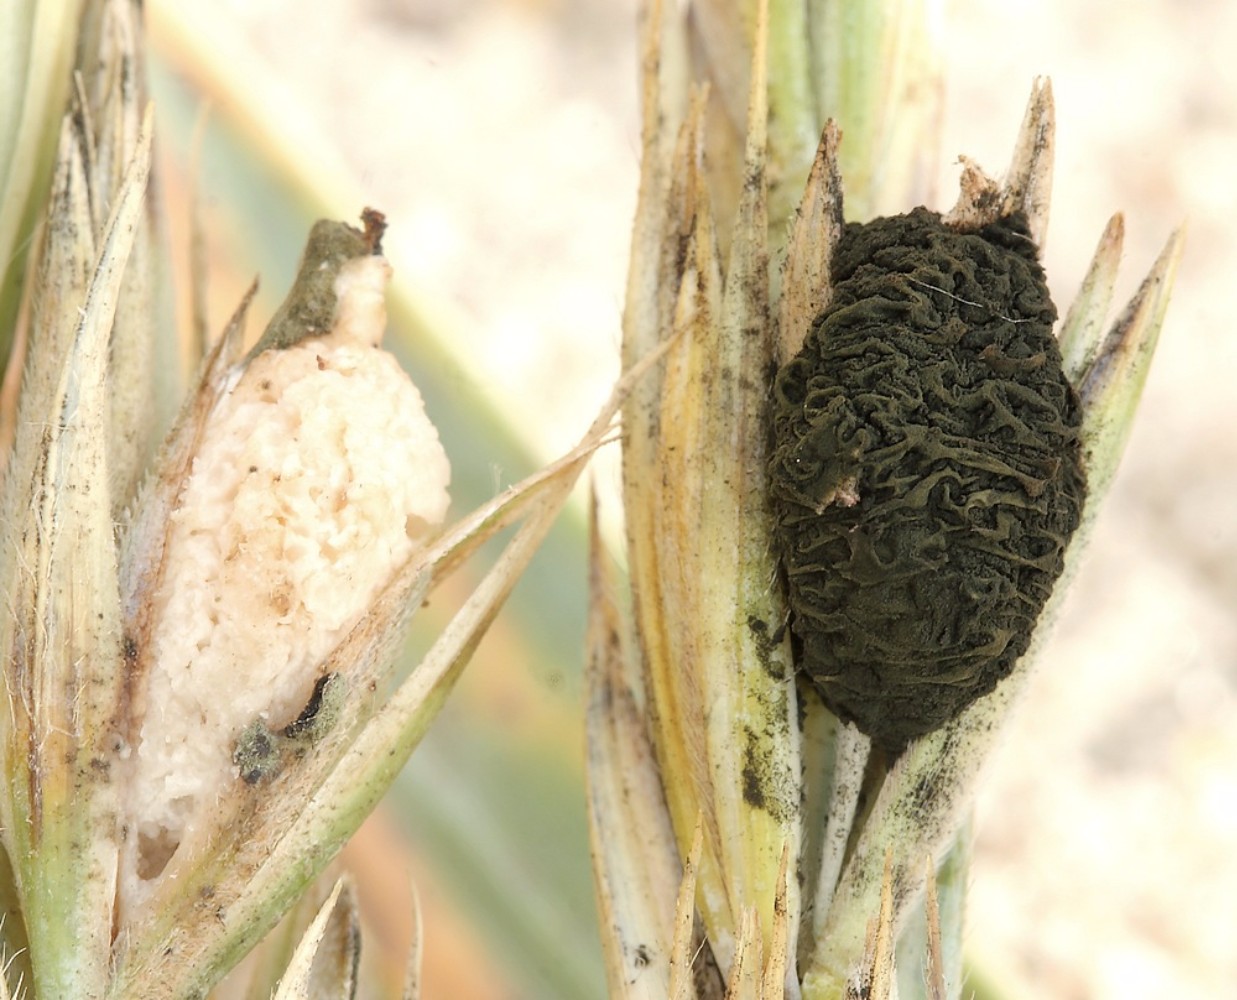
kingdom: Fungi
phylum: Basidiomycota
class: Ustilaginomycetes
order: Ustilaginales
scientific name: Ustilaginales
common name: brandsvampordenen
